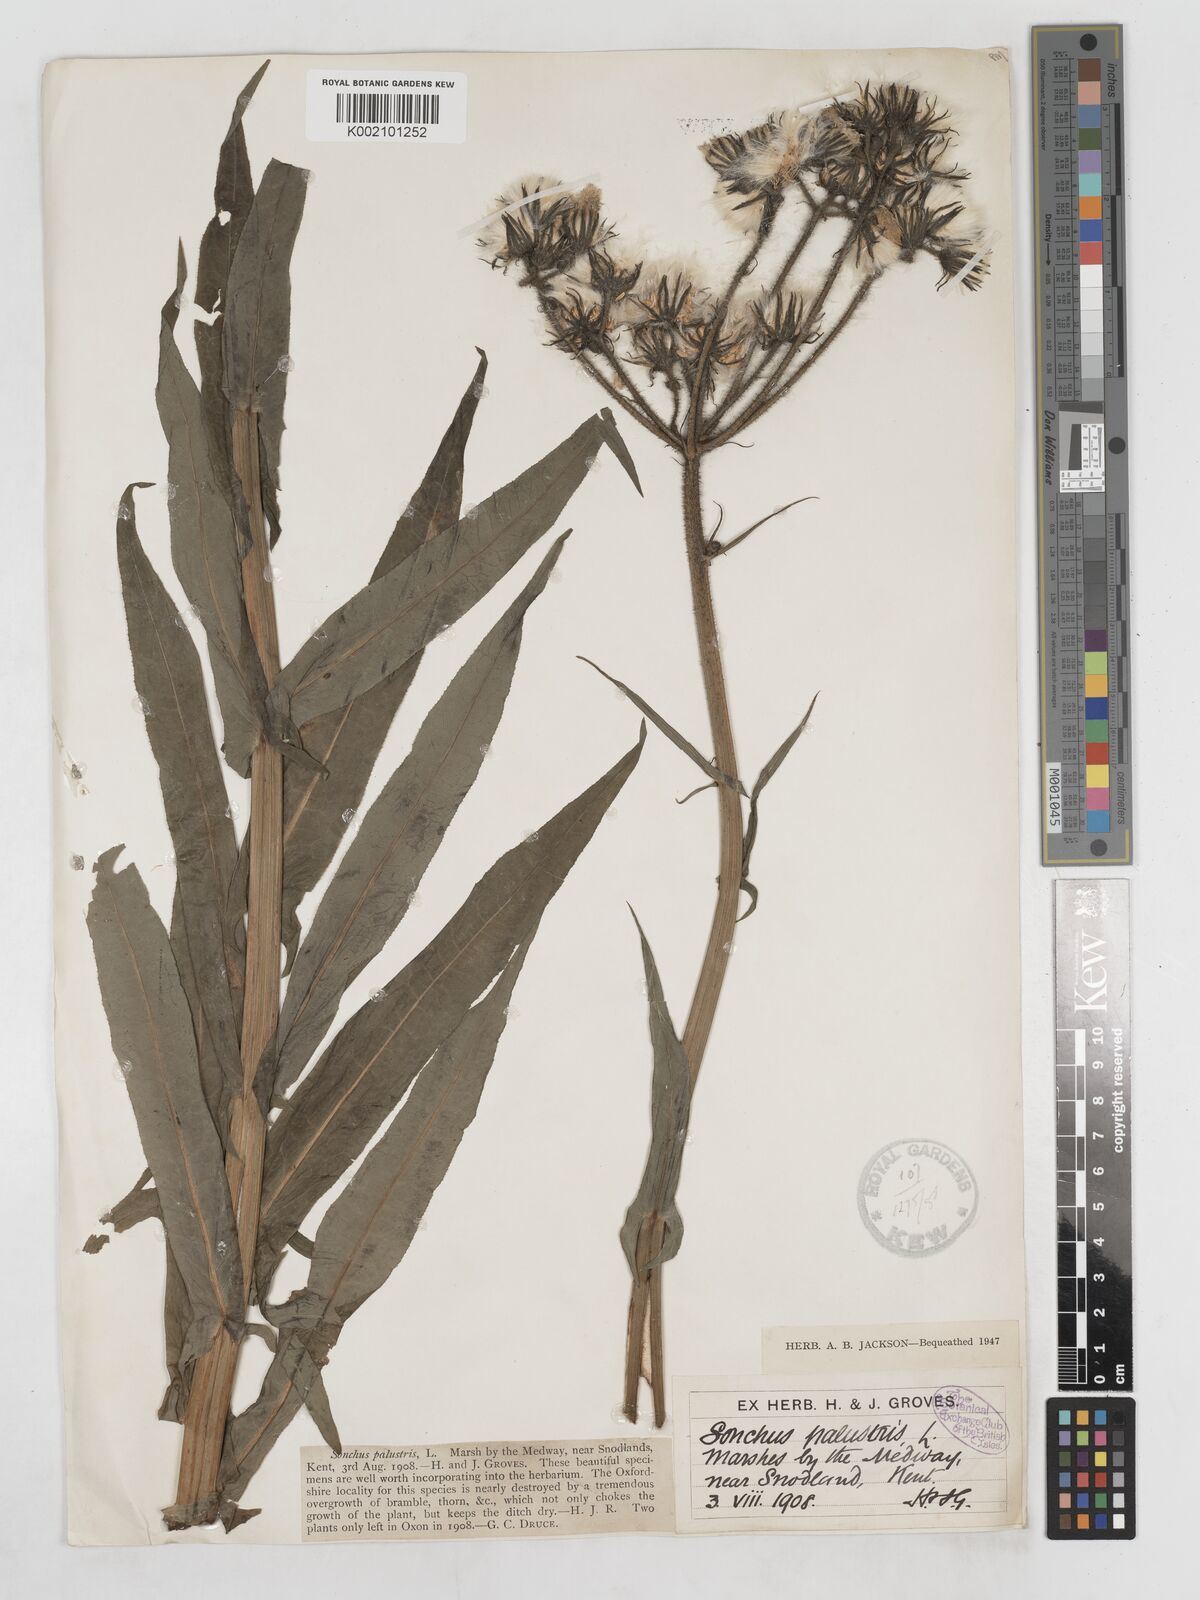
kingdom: Plantae
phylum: Tracheophyta
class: Magnoliopsida
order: Asterales
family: Asteraceae
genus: Sonchus
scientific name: Sonchus palustris
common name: Marsh sow-thistle
